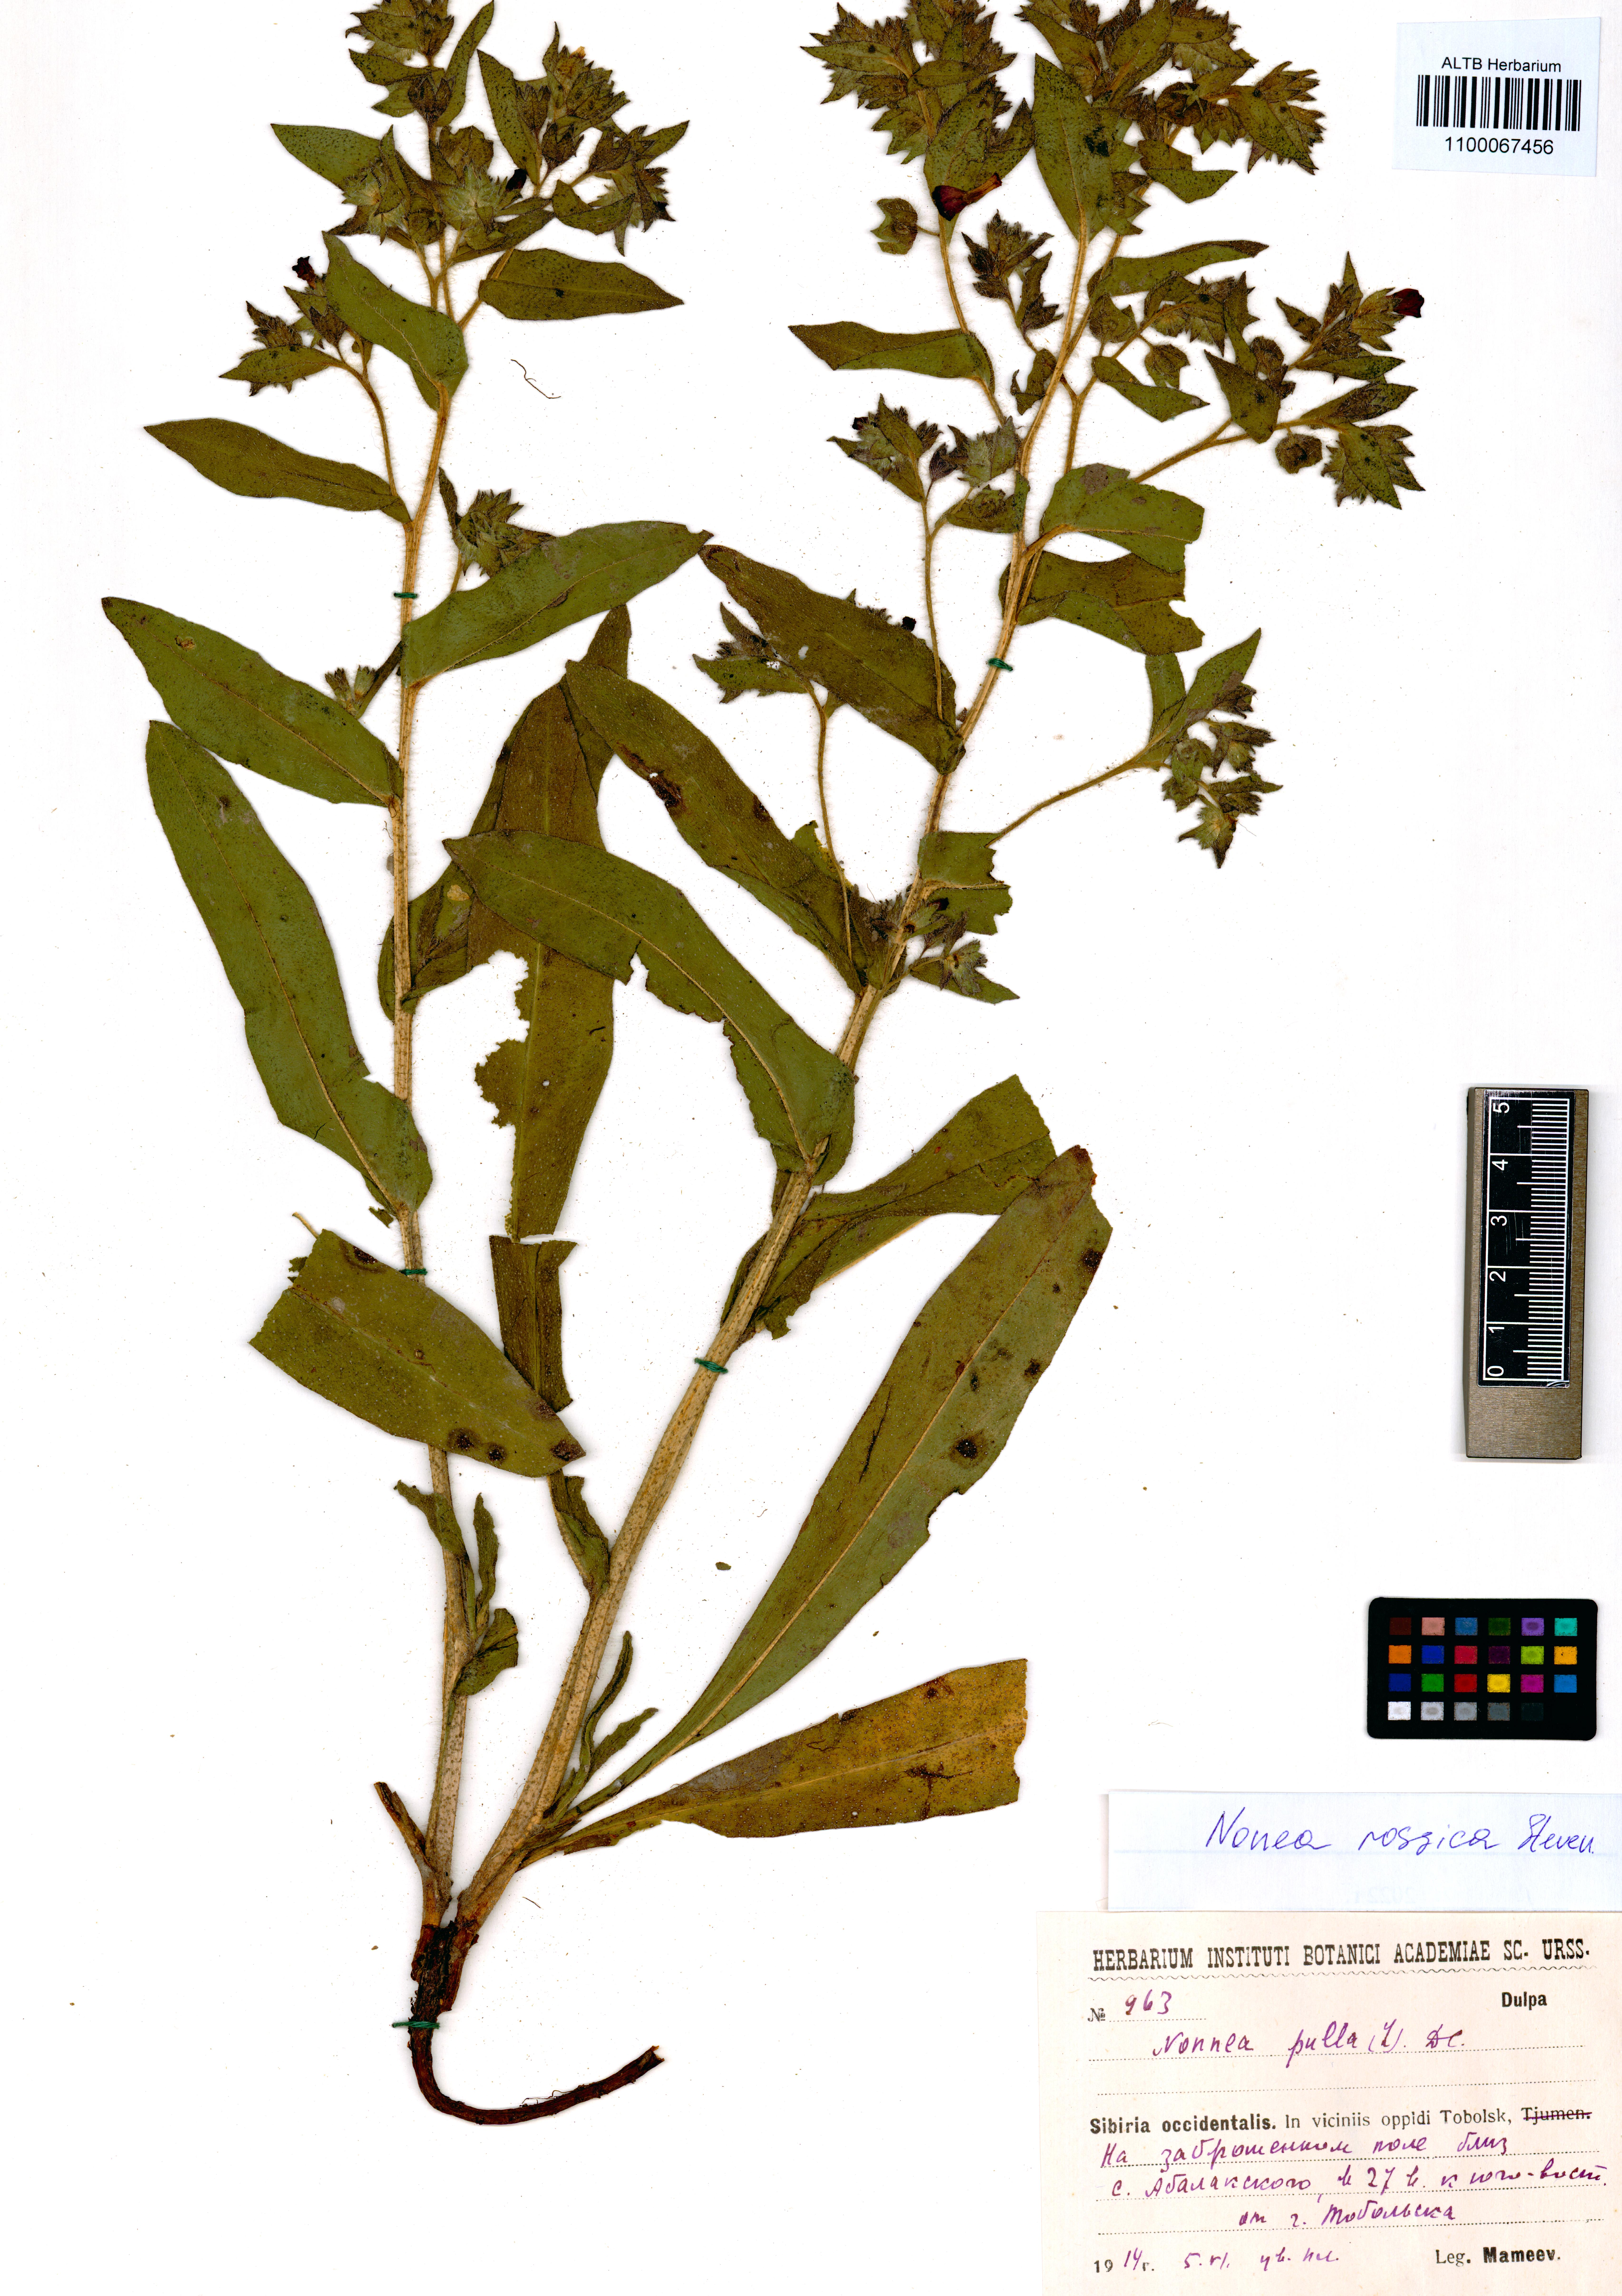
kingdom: Plantae
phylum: Tracheophyta
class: Magnoliopsida
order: Boraginales
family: Boraginaceae
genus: Nonea
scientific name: Nonea pulla
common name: Brown nonea
